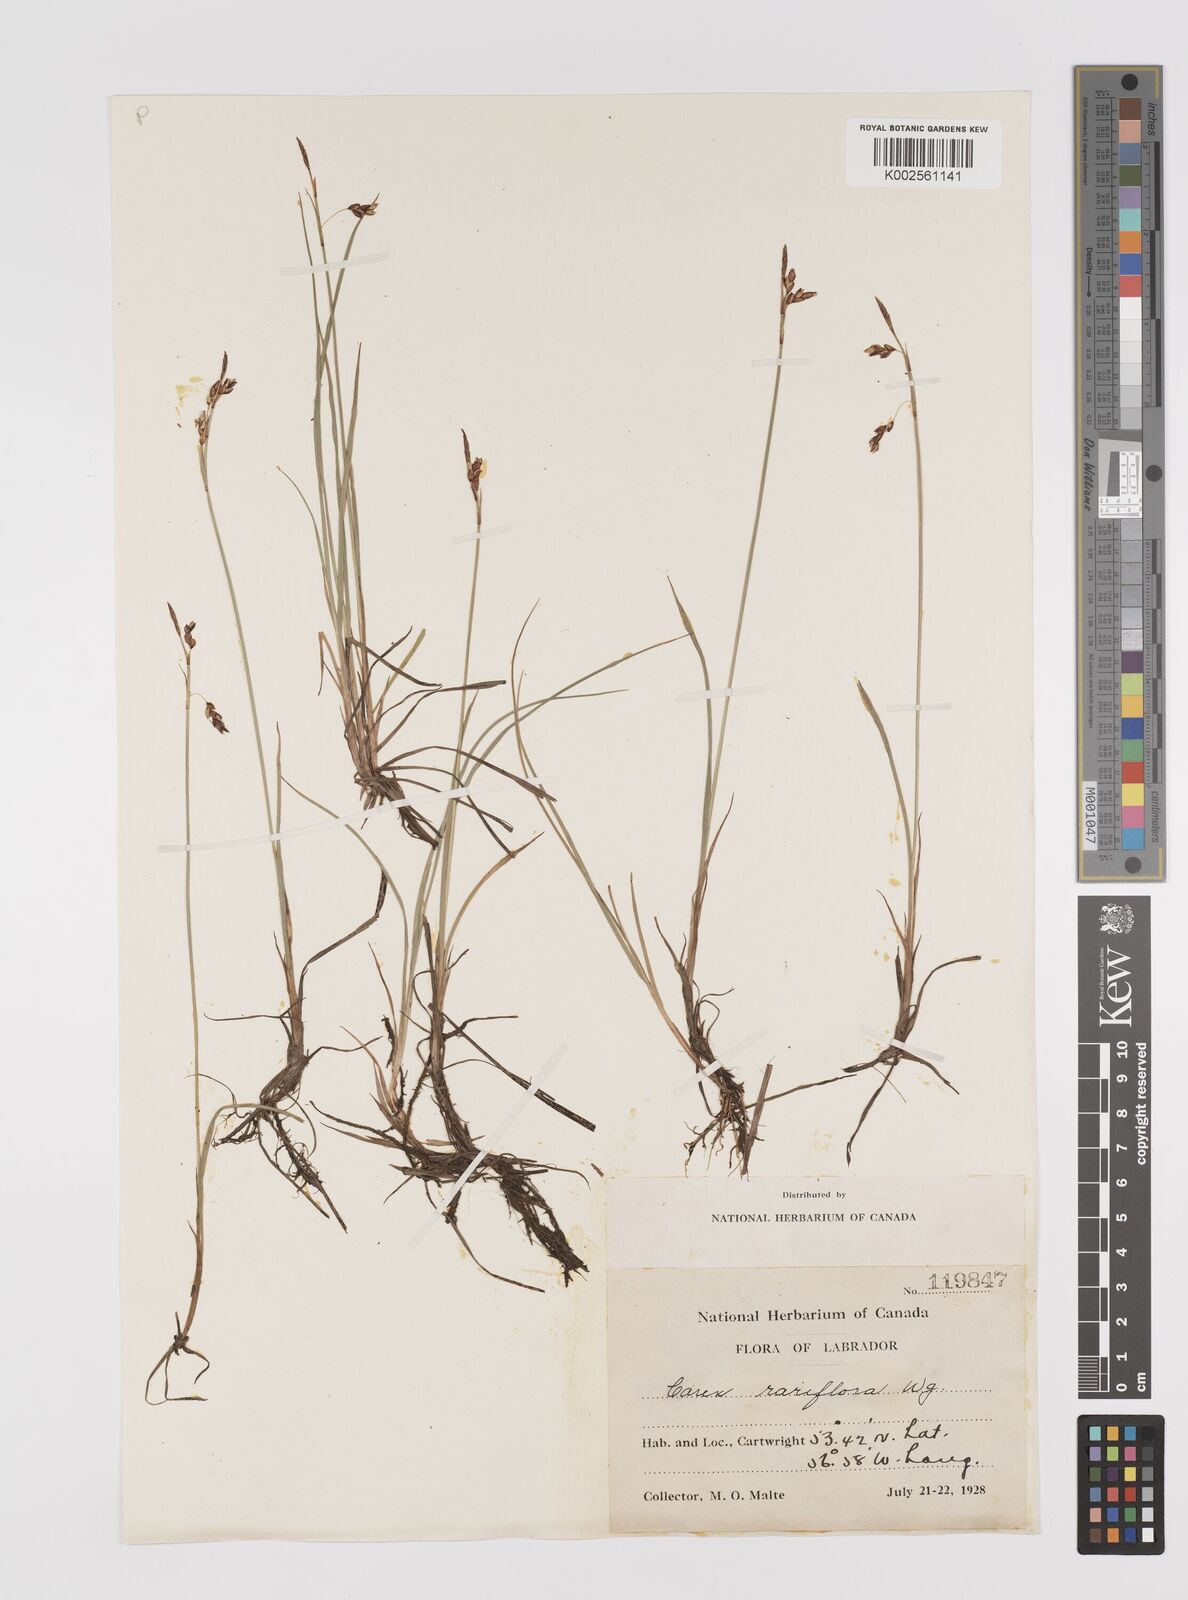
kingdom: Plantae
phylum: Tracheophyta
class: Liliopsida
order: Poales
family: Cyperaceae
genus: Carex
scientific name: Carex rariflora
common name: Loose-flowered alpine sedge
